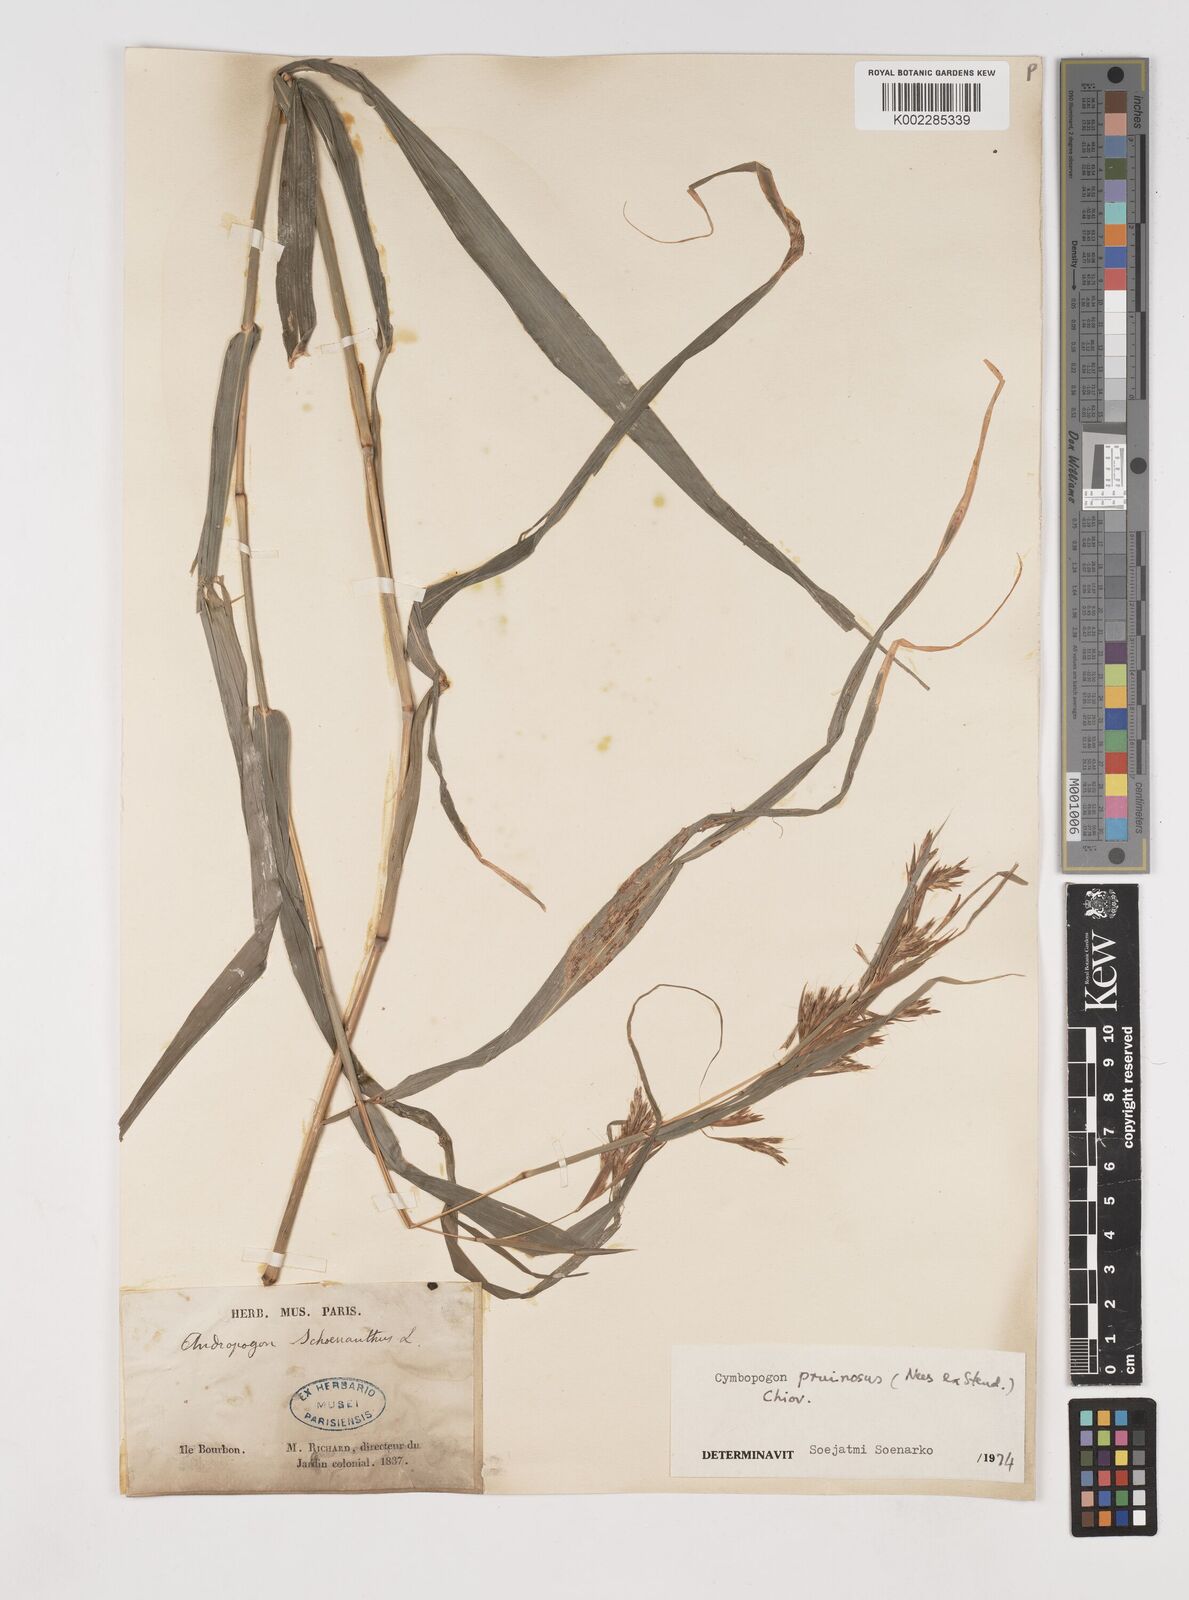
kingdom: Plantae
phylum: Tracheophyta
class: Liliopsida
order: Poales
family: Poaceae
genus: Cymbopogon
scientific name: Cymbopogon pruinosus
